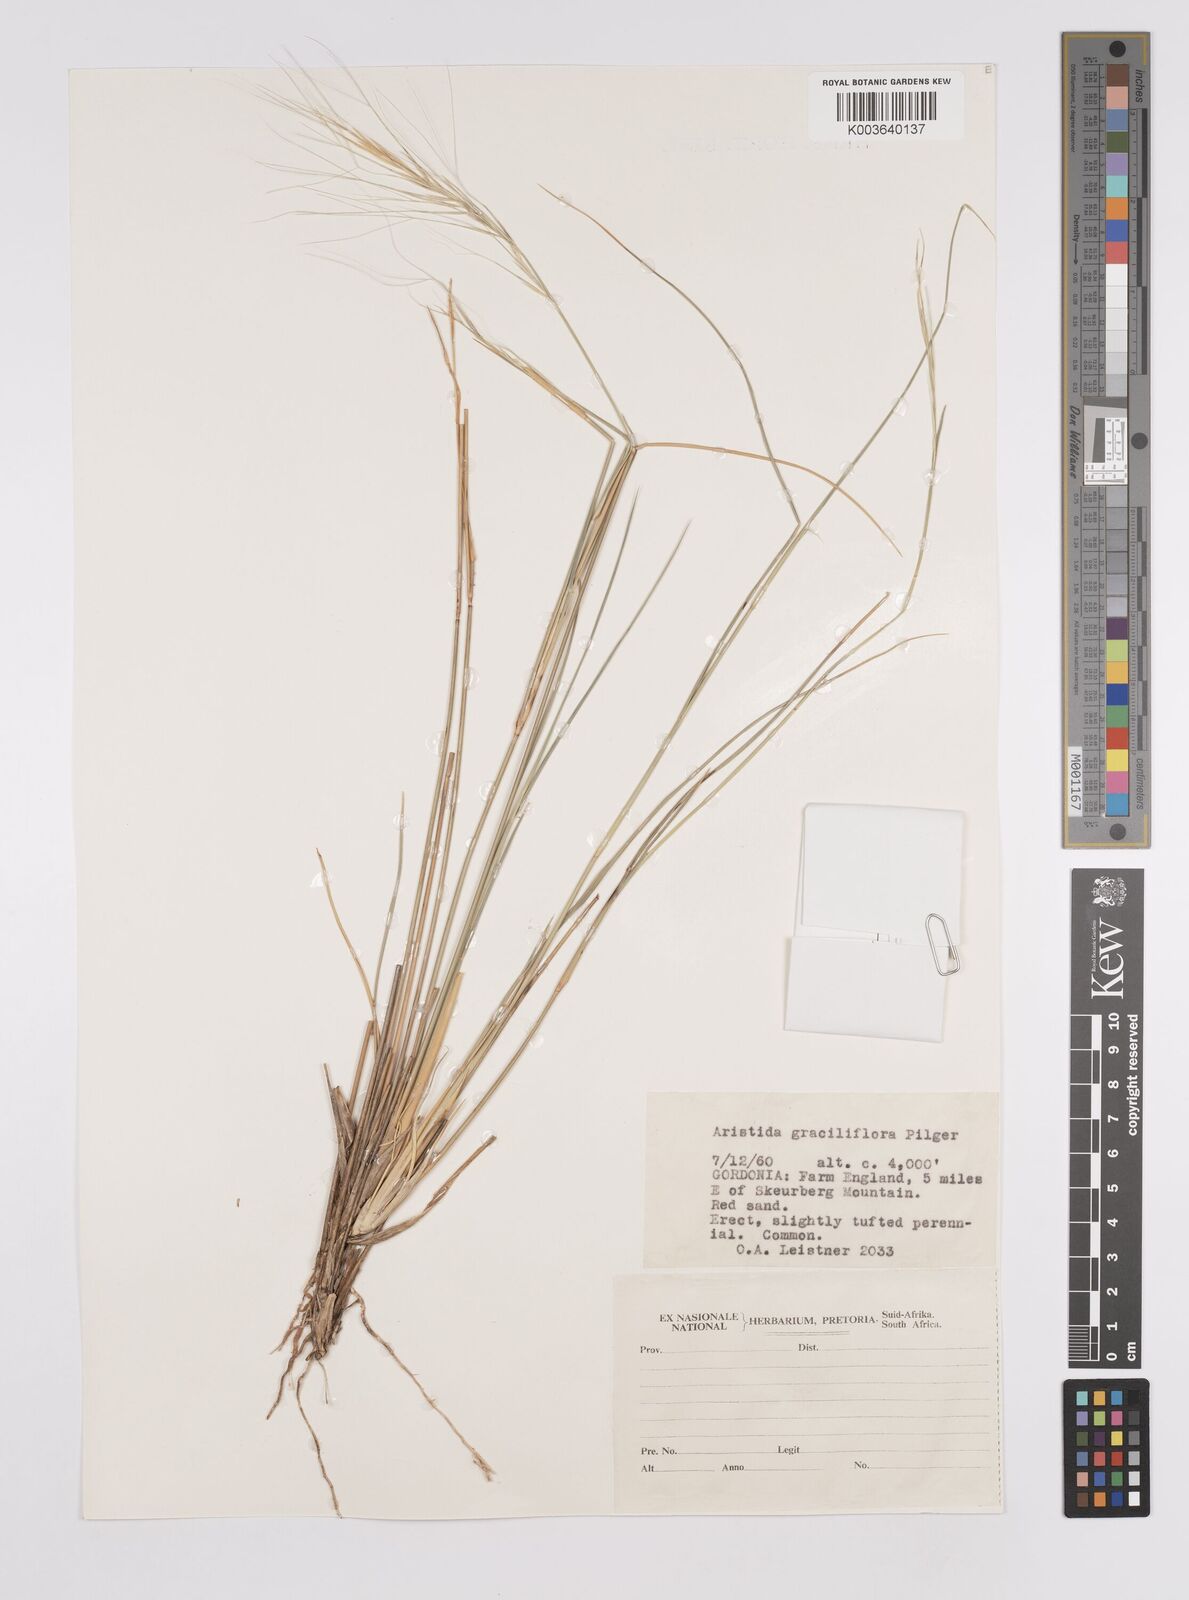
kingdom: Plantae
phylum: Tracheophyta
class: Liliopsida
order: Poales
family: Poaceae
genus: Aristida
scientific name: Aristida stipitata
